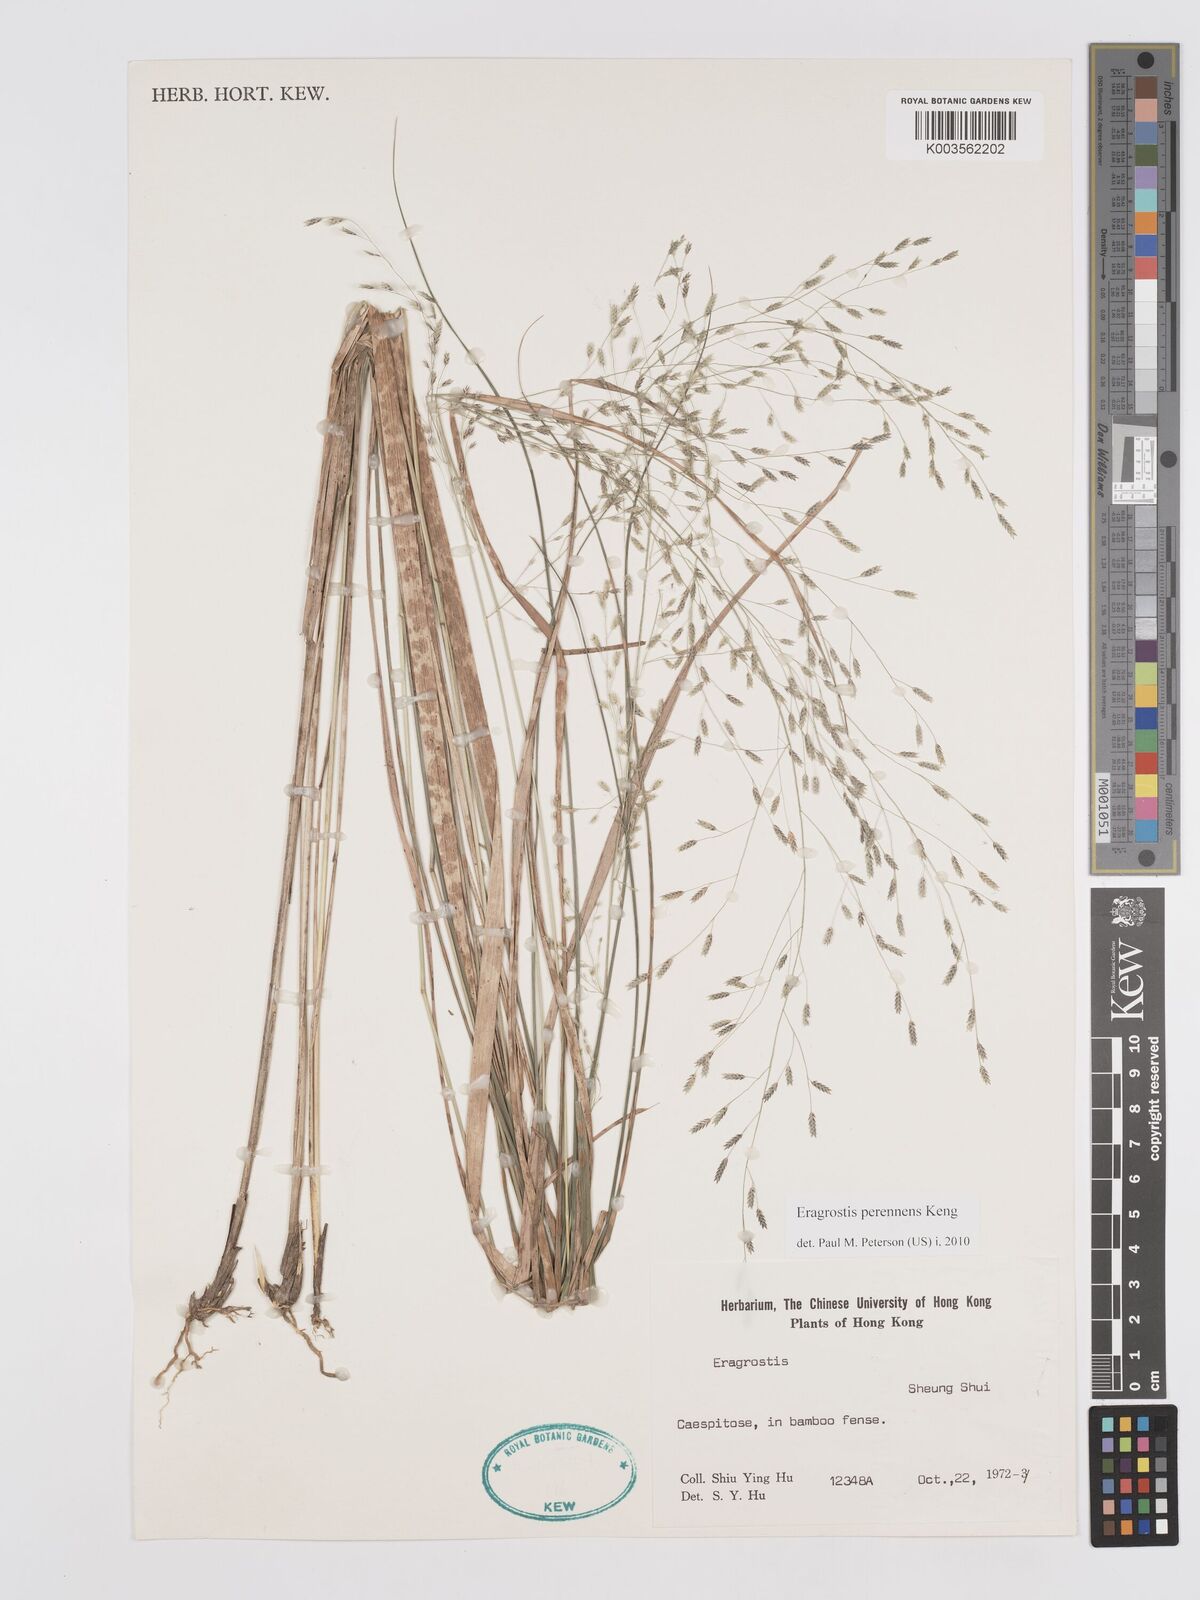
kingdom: Plantae
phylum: Tracheophyta
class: Liliopsida
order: Poales
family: Poaceae
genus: Eragrostis
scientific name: Eragrostis perennans
